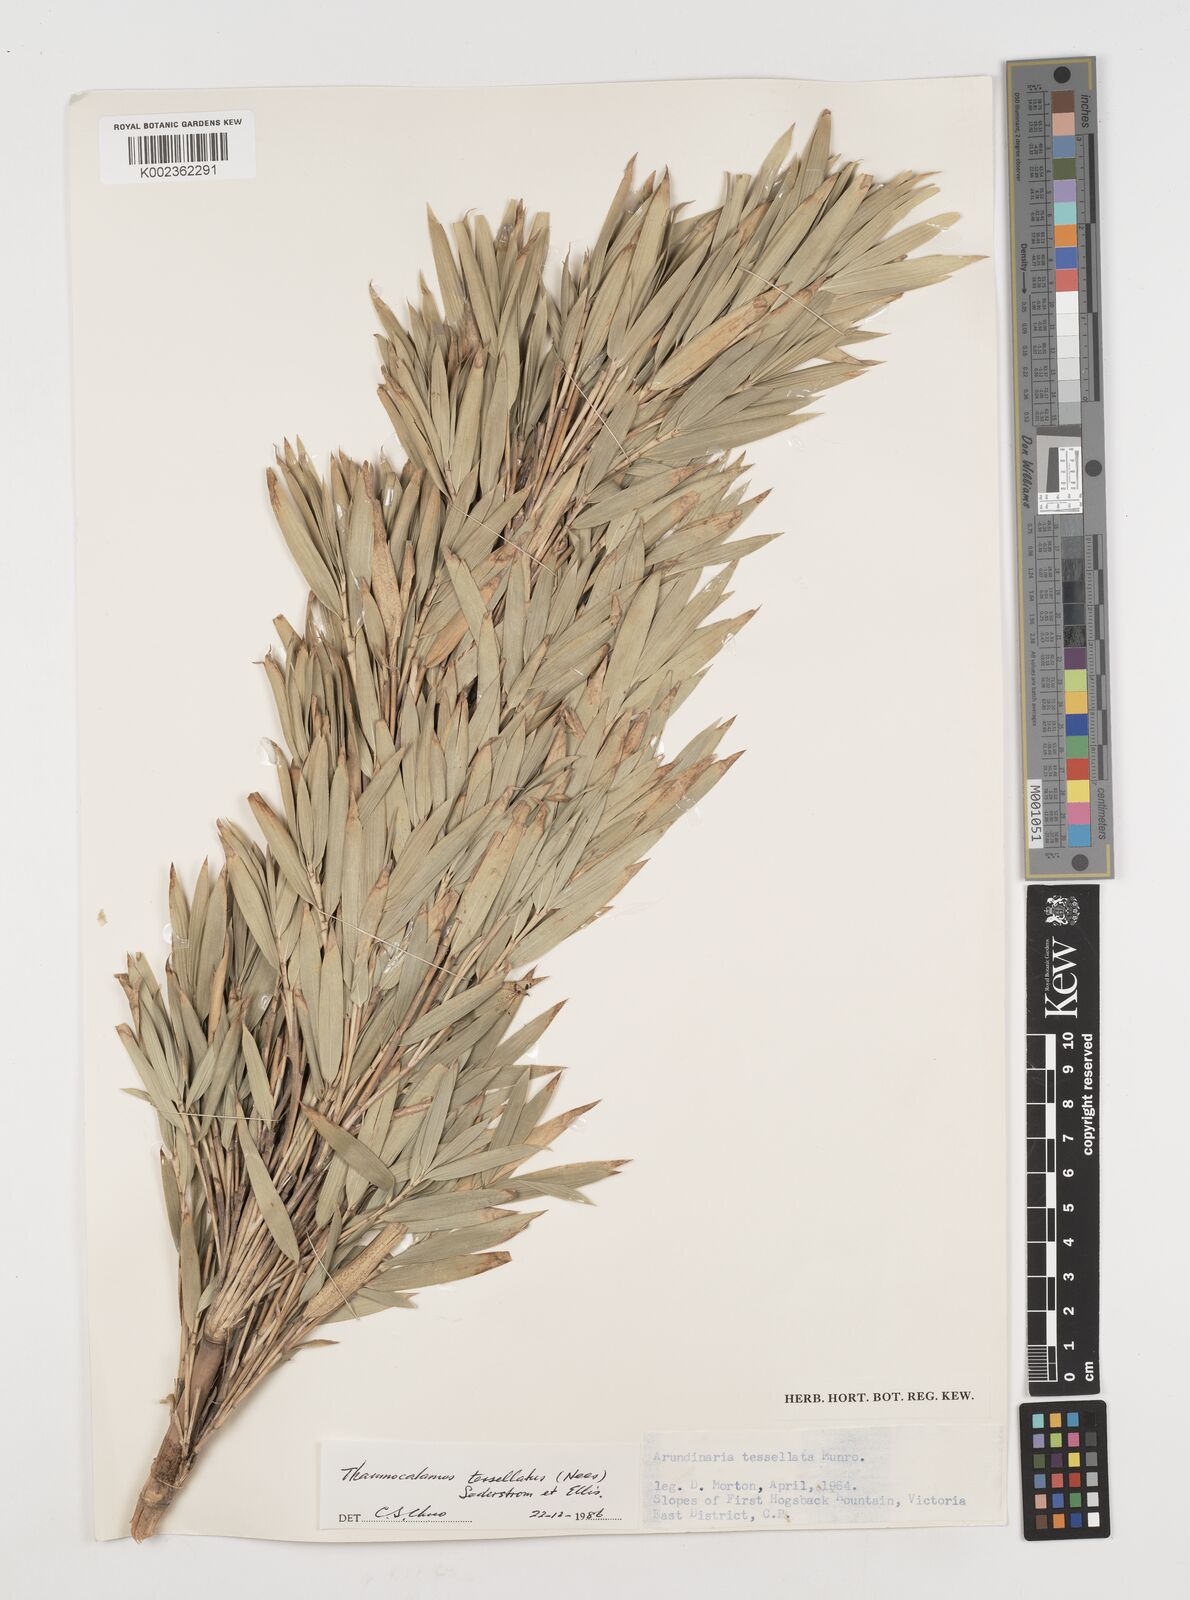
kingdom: Plantae
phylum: Tracheophyta
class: Liliopsida
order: Poales
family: Poaceae
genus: Bergbambos
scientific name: Bergbambos tessellata
